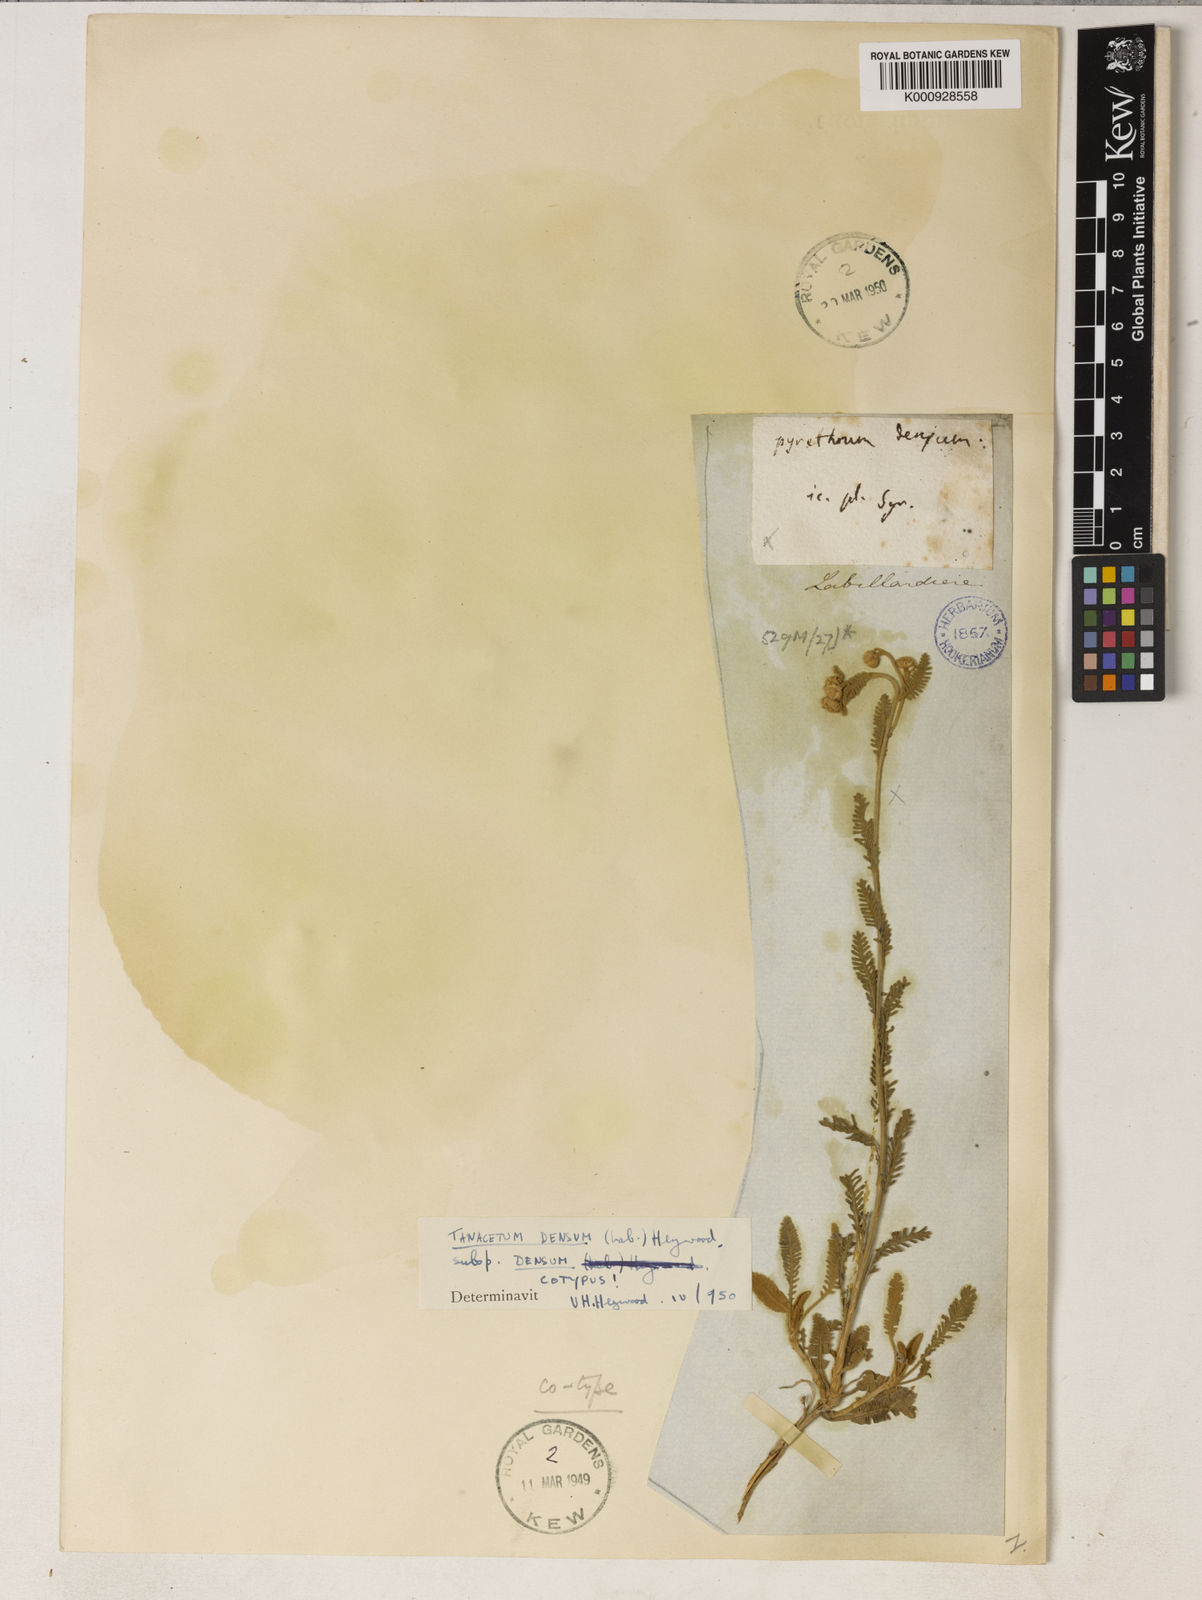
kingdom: Plantae
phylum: Tracheophyta
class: Magnoliopsida
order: Asterales
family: Asteraceae
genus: Tanacetum
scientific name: Tanacetum densum
